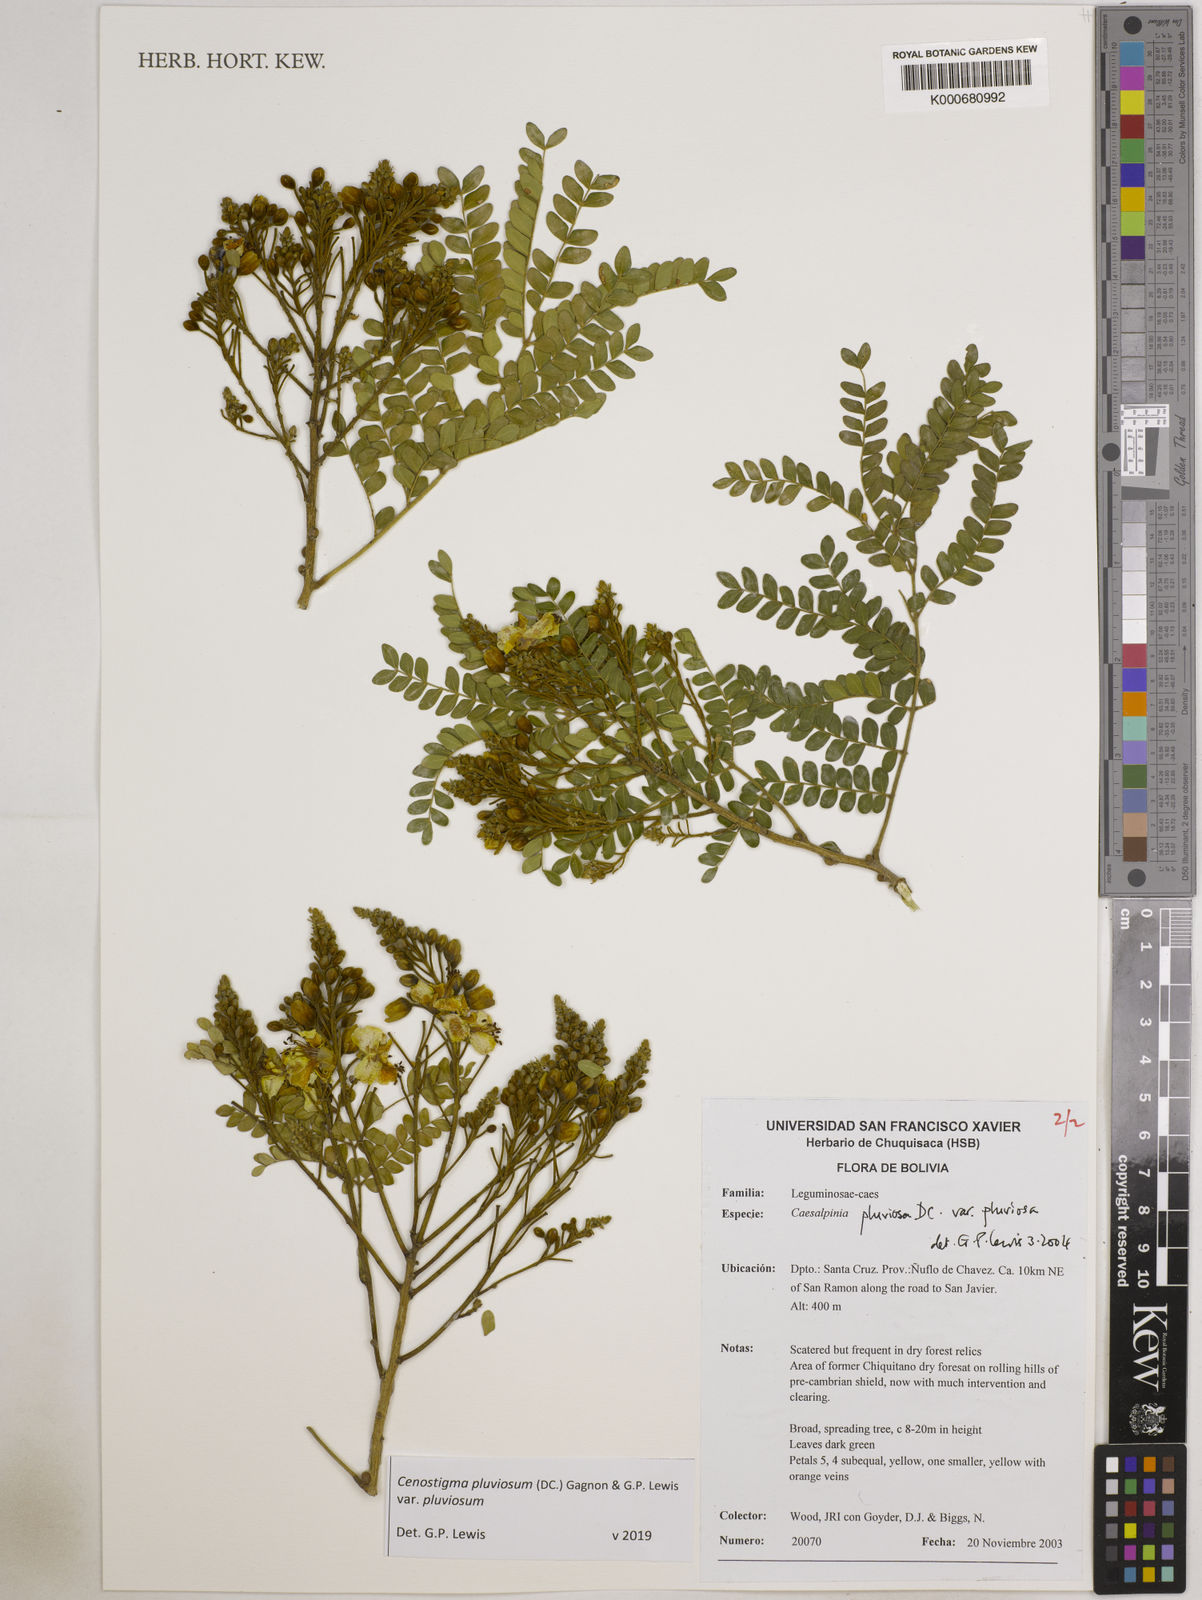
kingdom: Plantae
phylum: Tracheophyta
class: Magnoliopsida
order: Fabales
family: Fabaceae
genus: Cenostigma
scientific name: Cenostigma pluviosum
